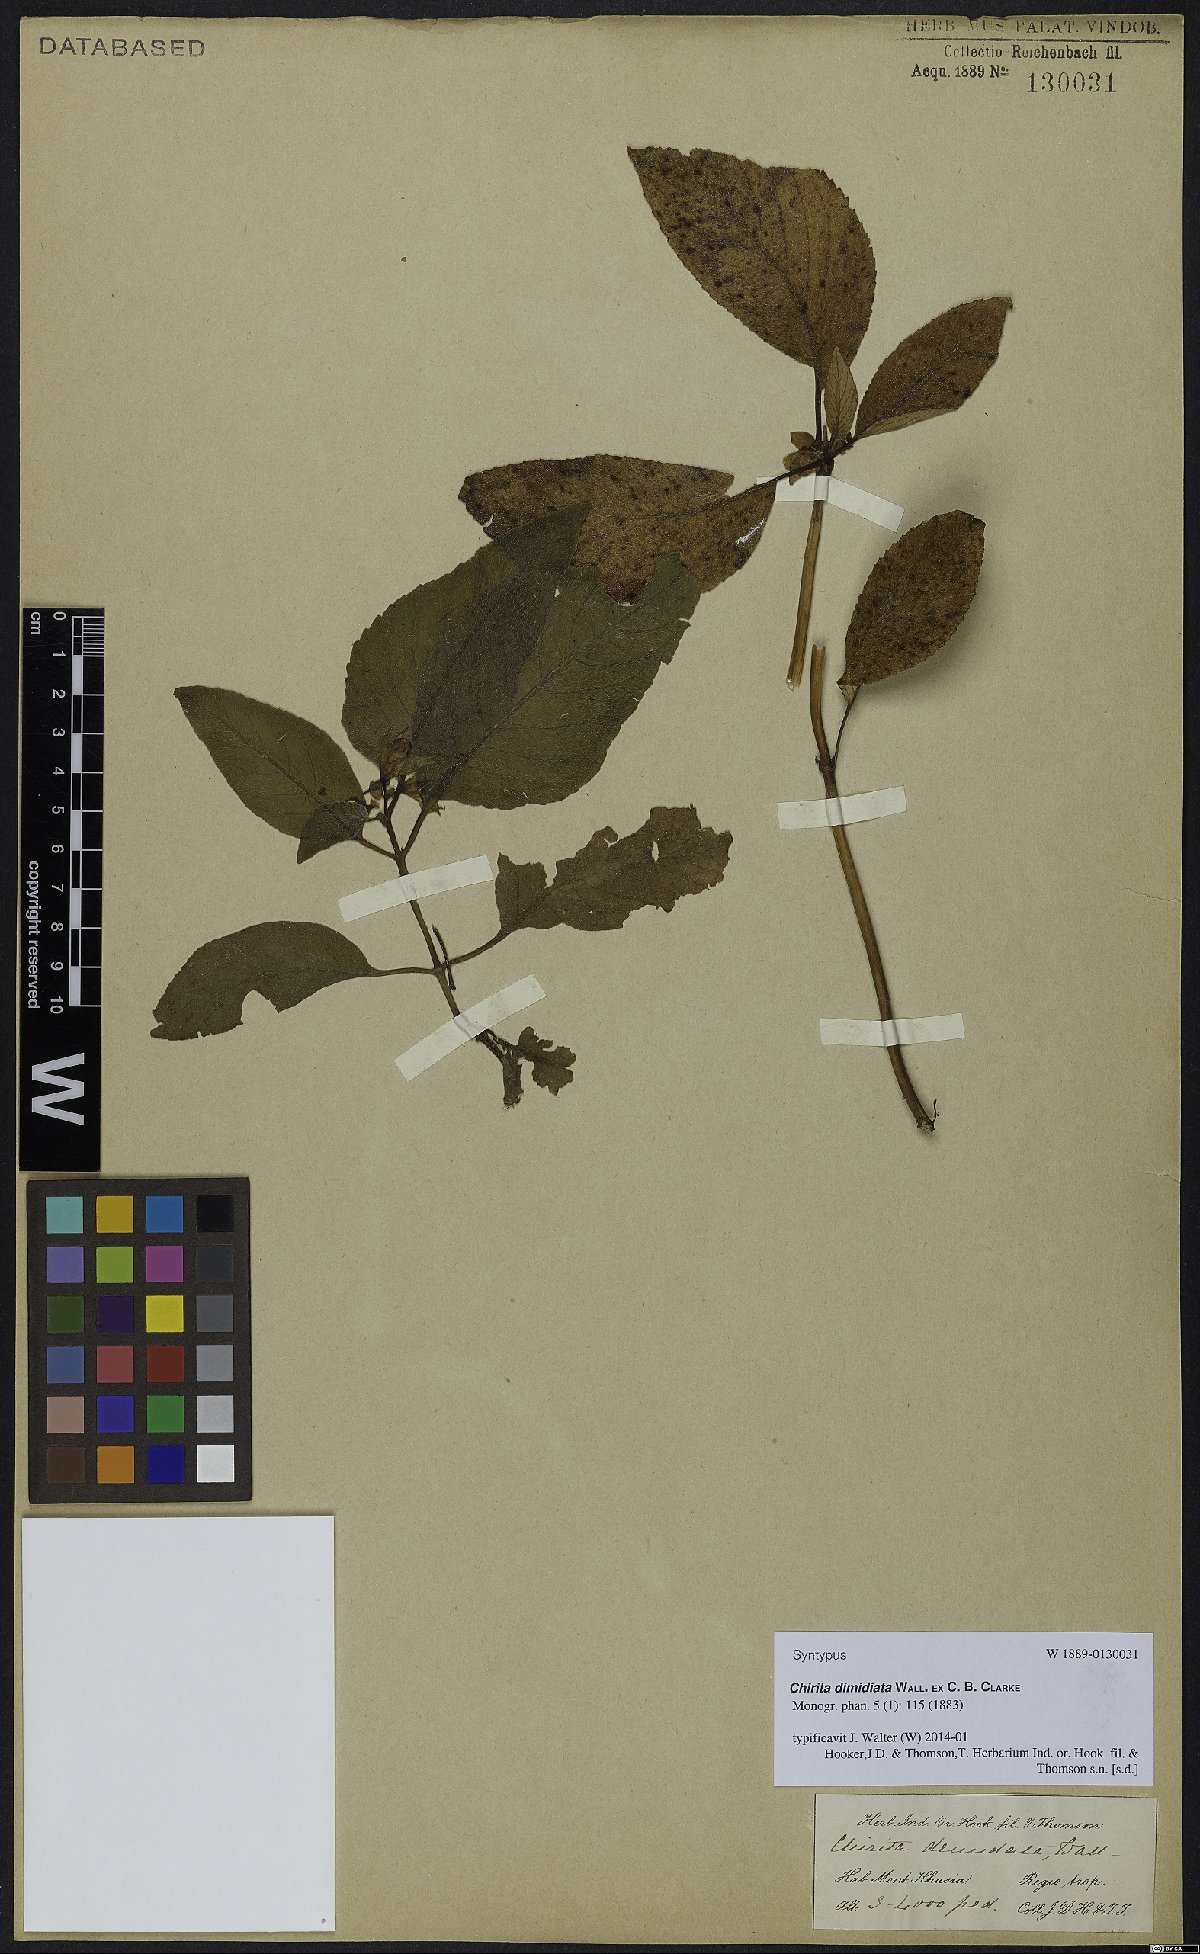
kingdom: Plantae
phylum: Tracheophyta
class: Magnoliopsida
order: Lamiales
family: Gesneriaceae
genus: Henckelia
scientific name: Henckelia dimidiata
